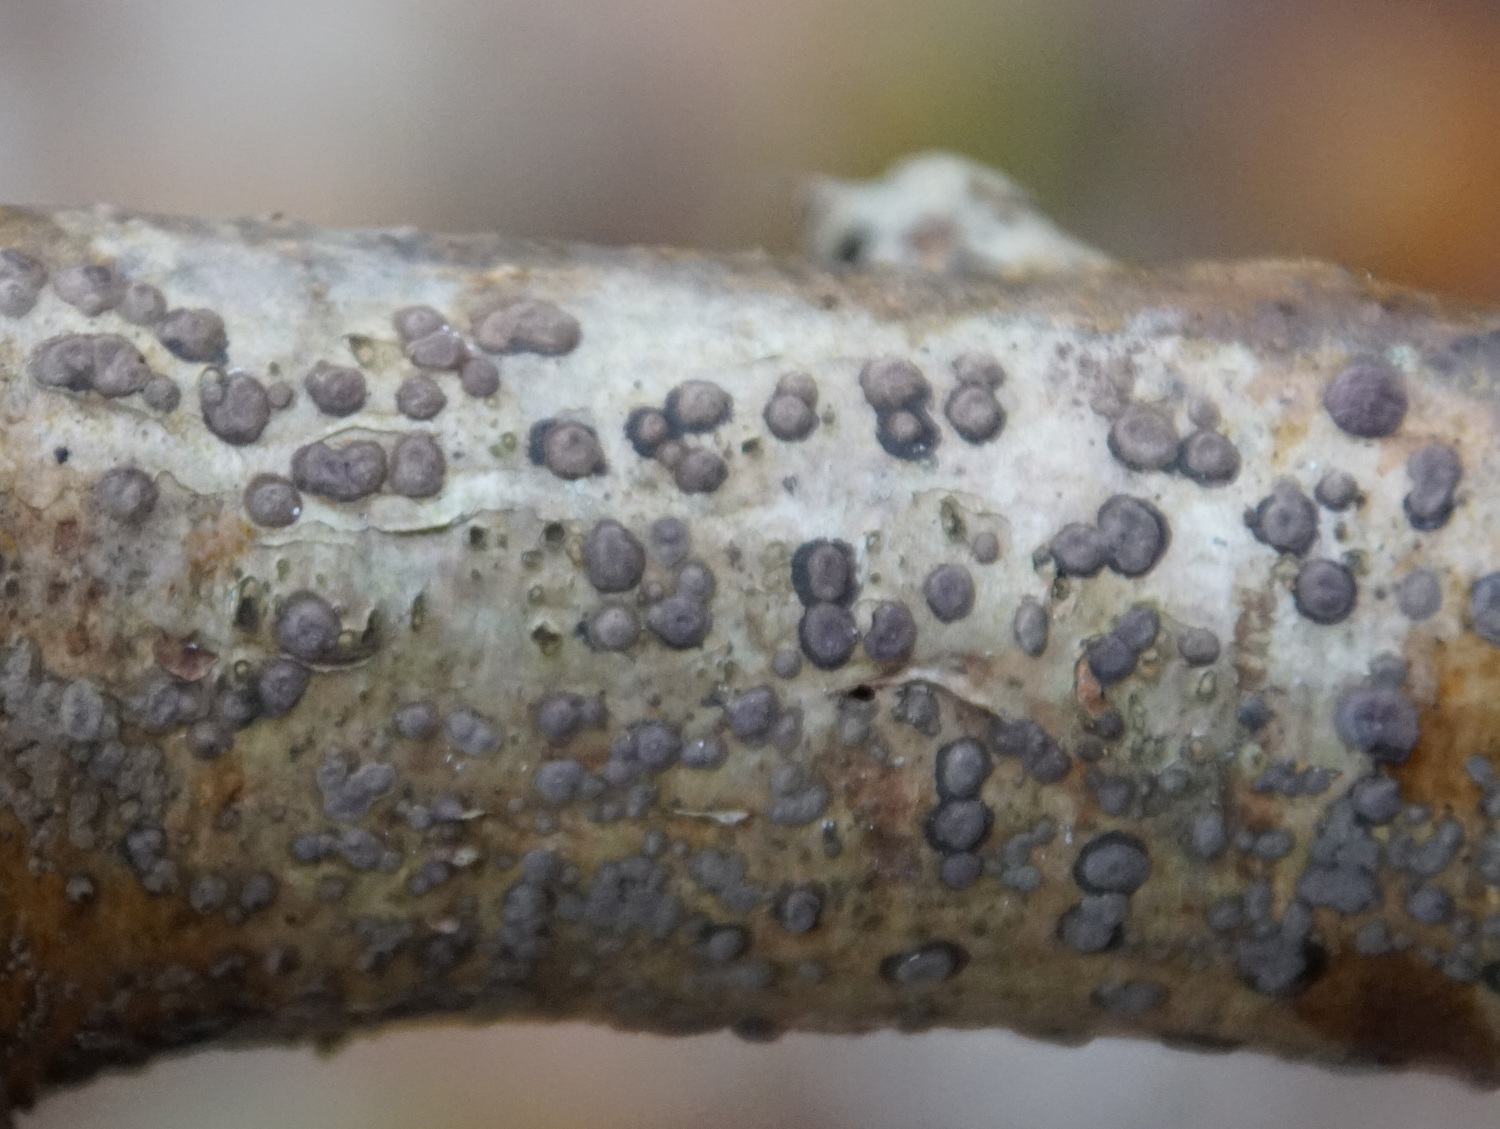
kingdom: Fungi
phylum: Ascomycota
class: Sordariomycetes
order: Xylariales
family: Hypoxylaceae
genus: Hypoxylon
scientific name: Hypoxylon fuscum
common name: kegleformet kulbær
